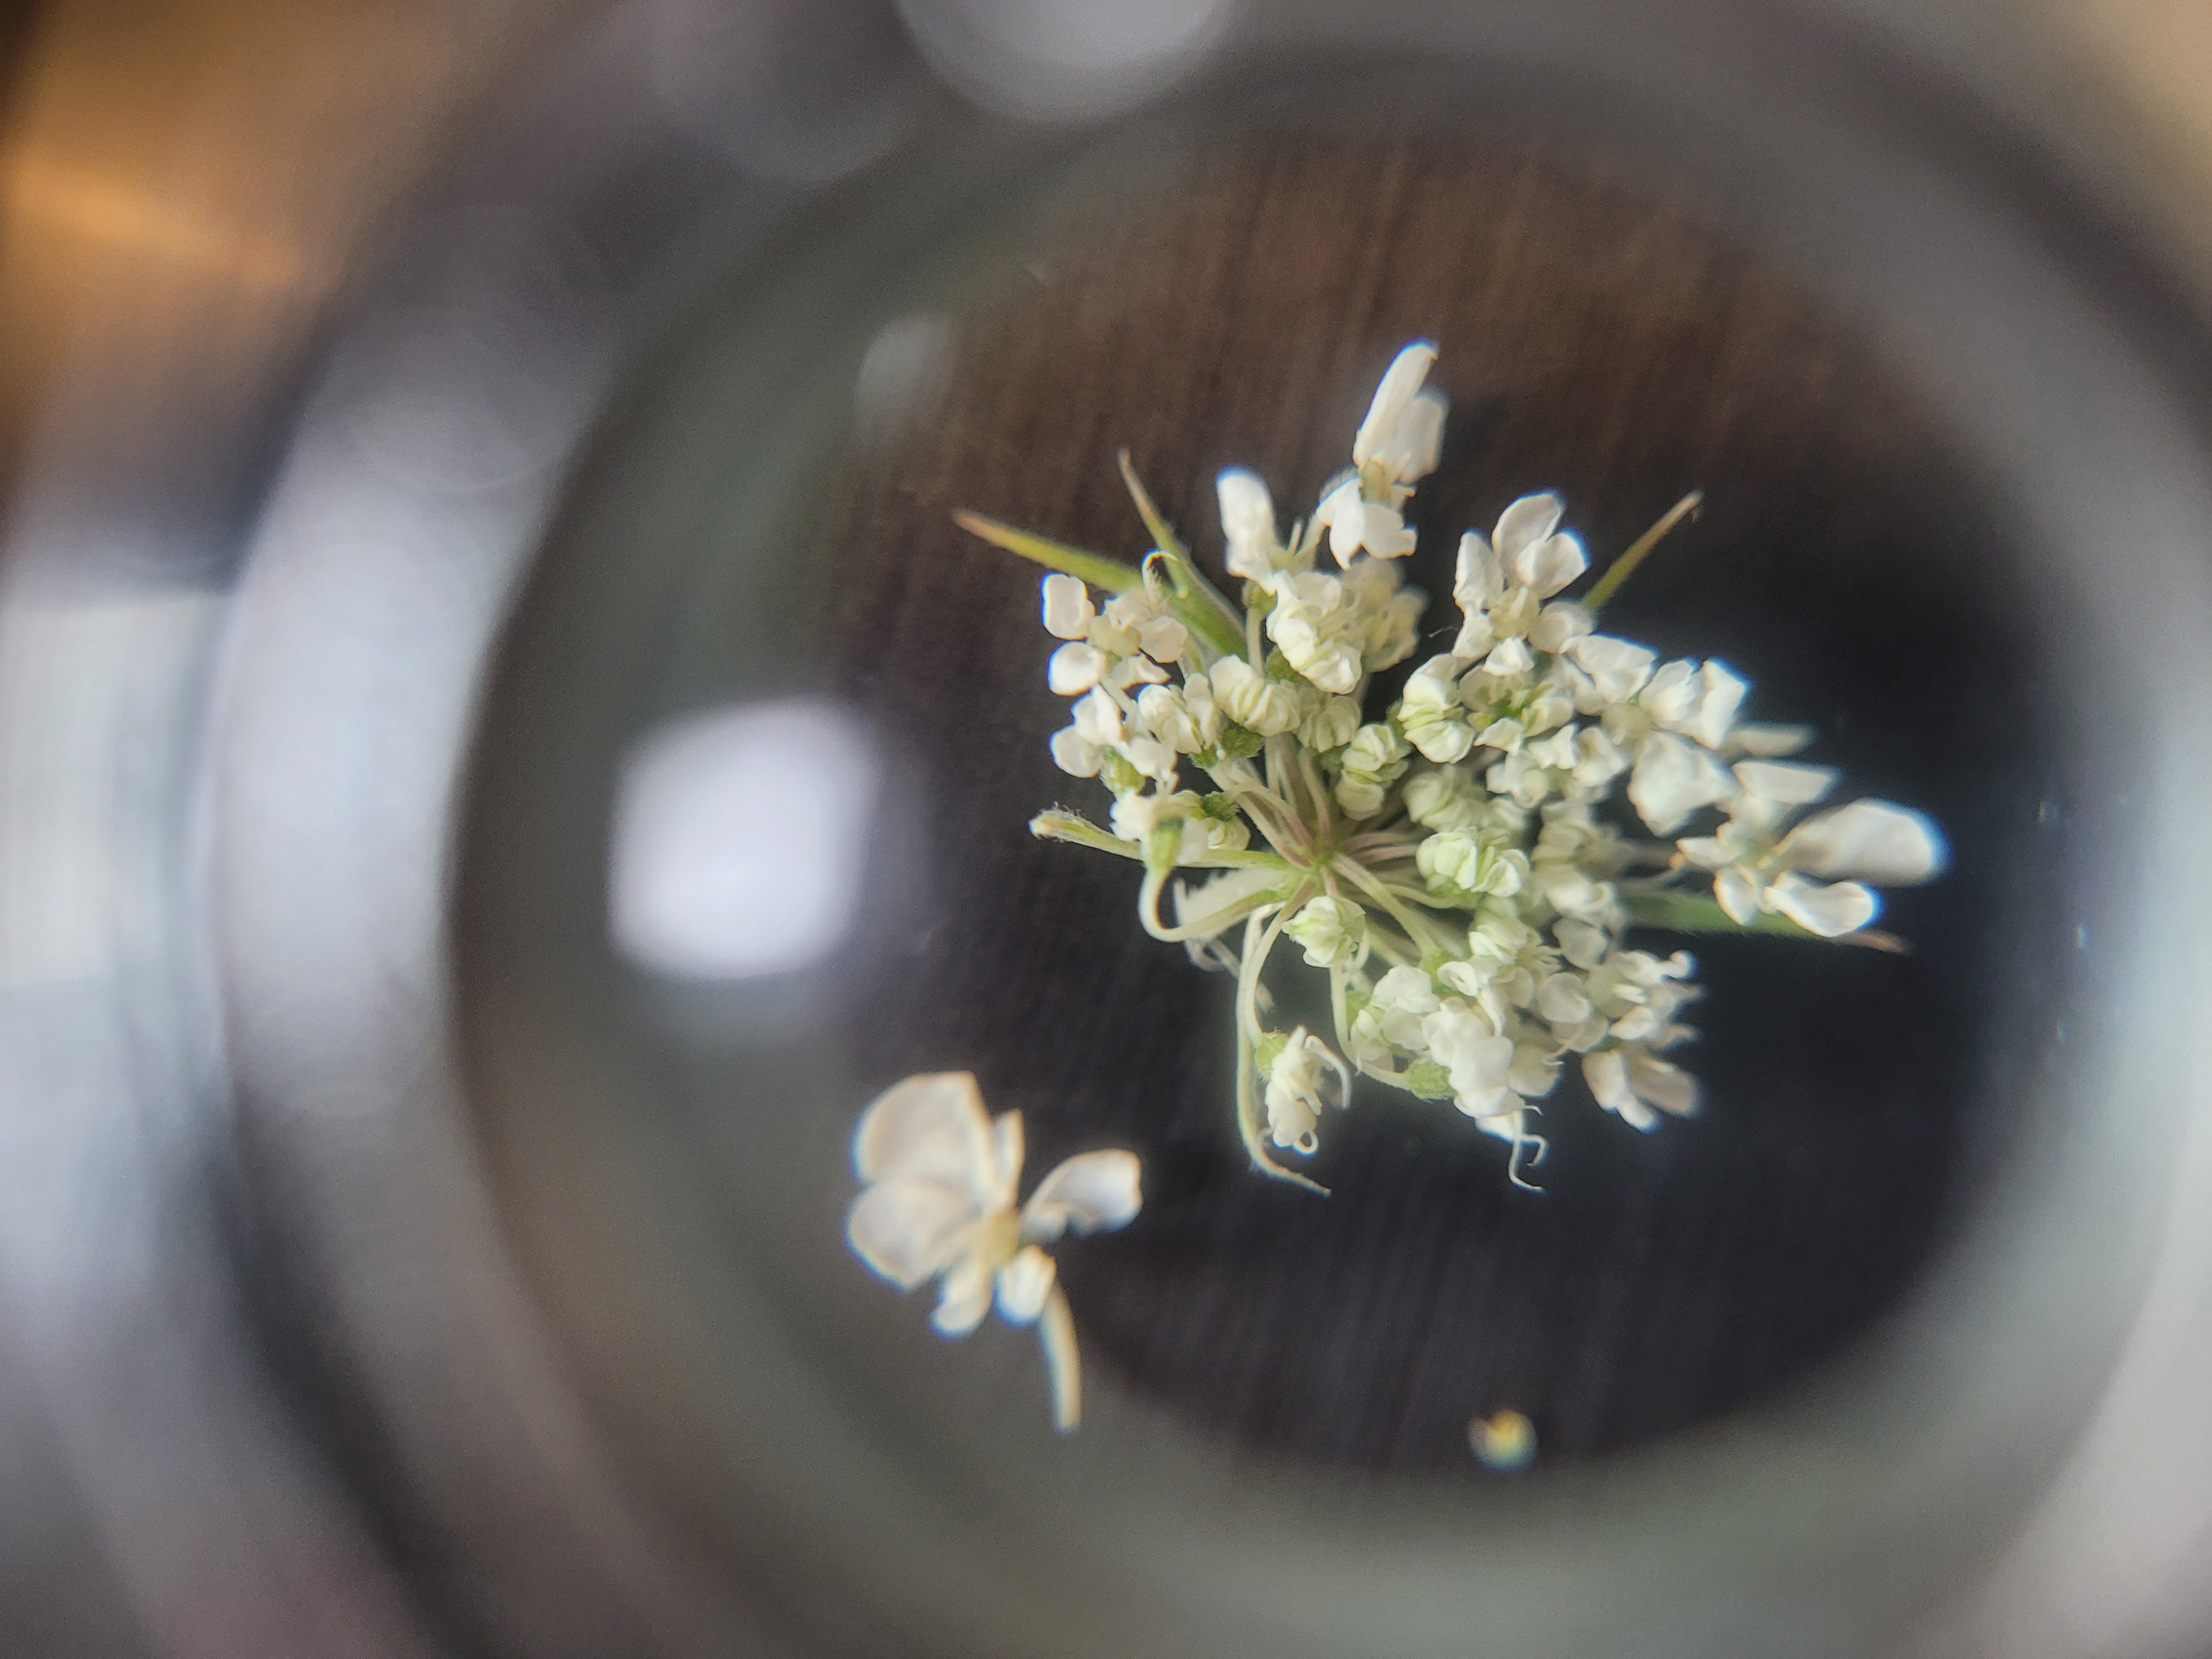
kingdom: Plantae
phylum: Tracheophyta
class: Magnoliopsida
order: Apiales
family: Apiaceae
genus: Daucus
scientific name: Daucus carota
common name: Gulerod
